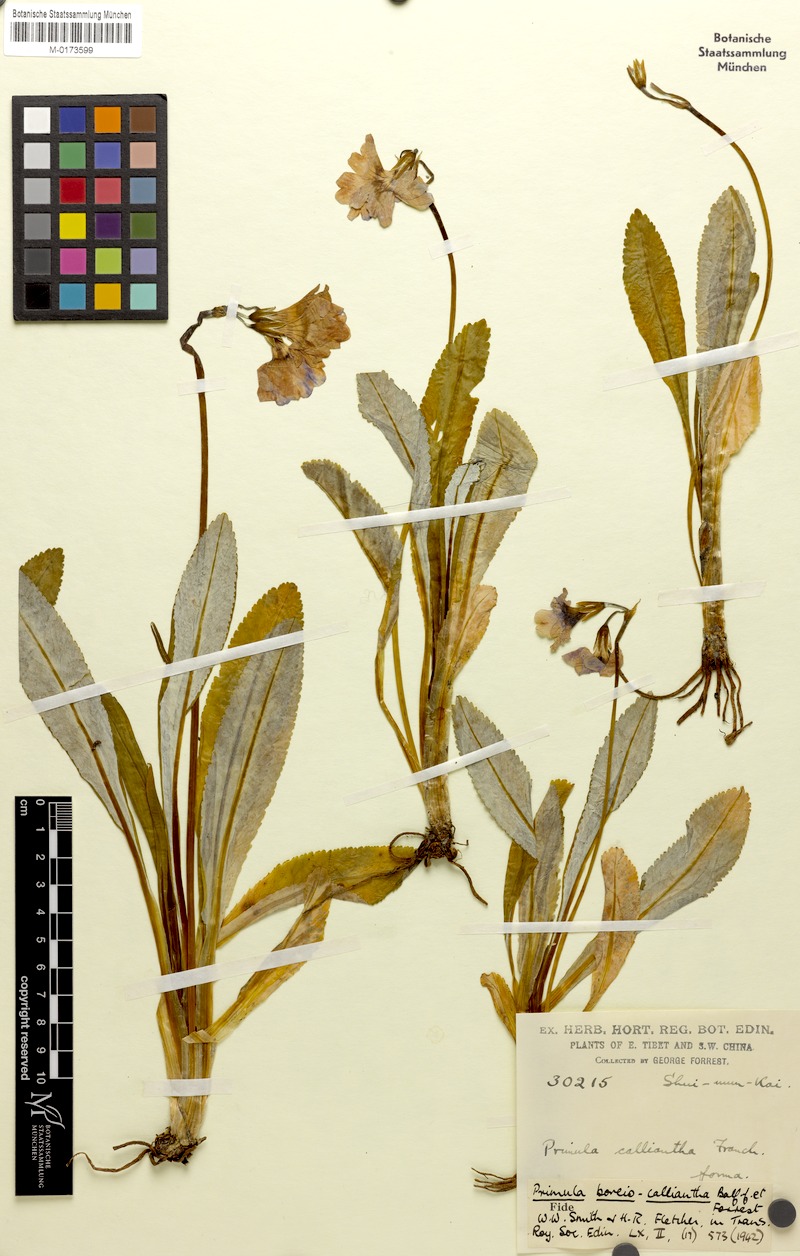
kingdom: Plantae
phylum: Tracheophyta
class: Magnoliopsida
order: Ericales
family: Primulaceae
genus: Primula
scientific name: Primula boreiocalliantha
